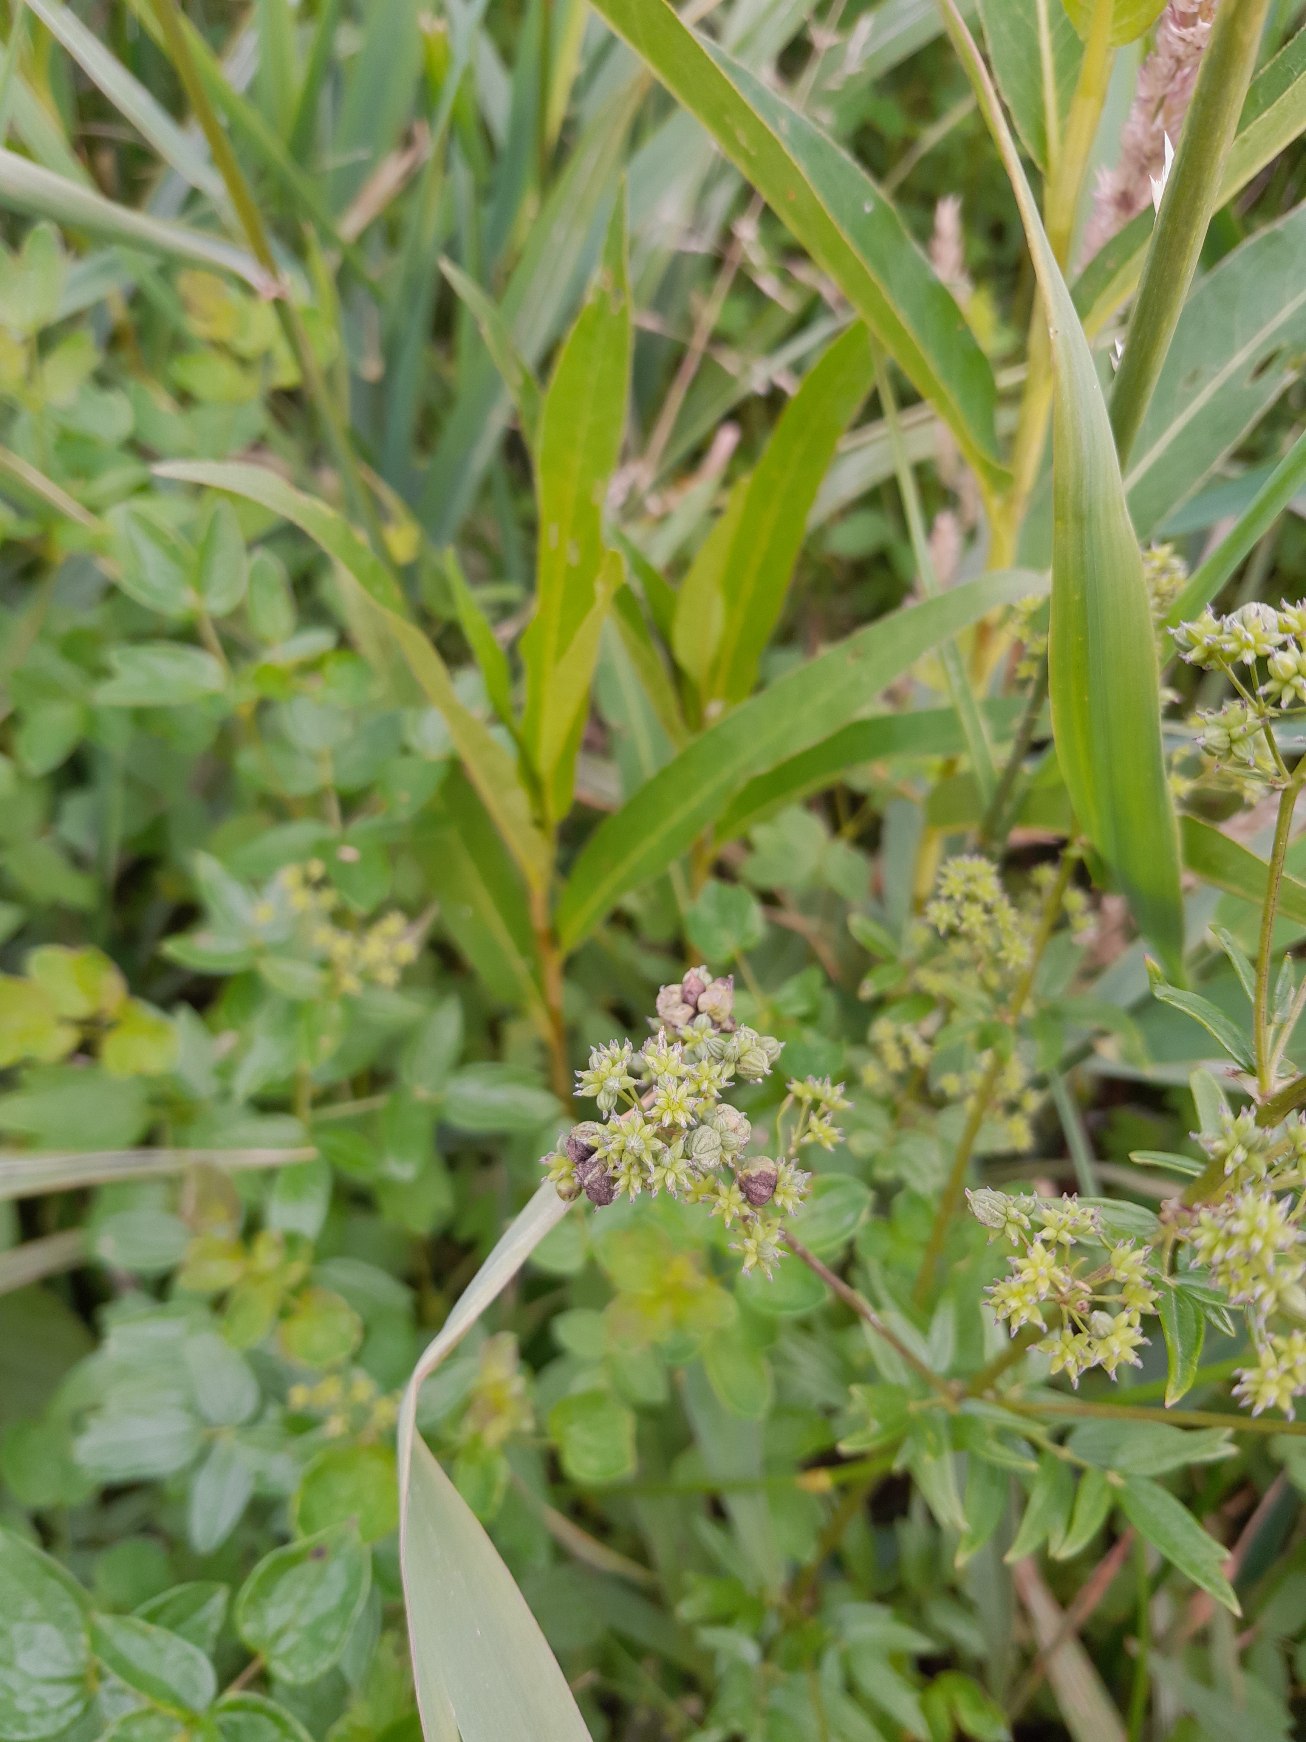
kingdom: Animalia
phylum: Arthropoda
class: Insecta
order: Diptera
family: Cecidomyiidae
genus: Ametrodiplosis
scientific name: Ametrodiplosis thalictricola
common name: Frøstjernegalmyg
